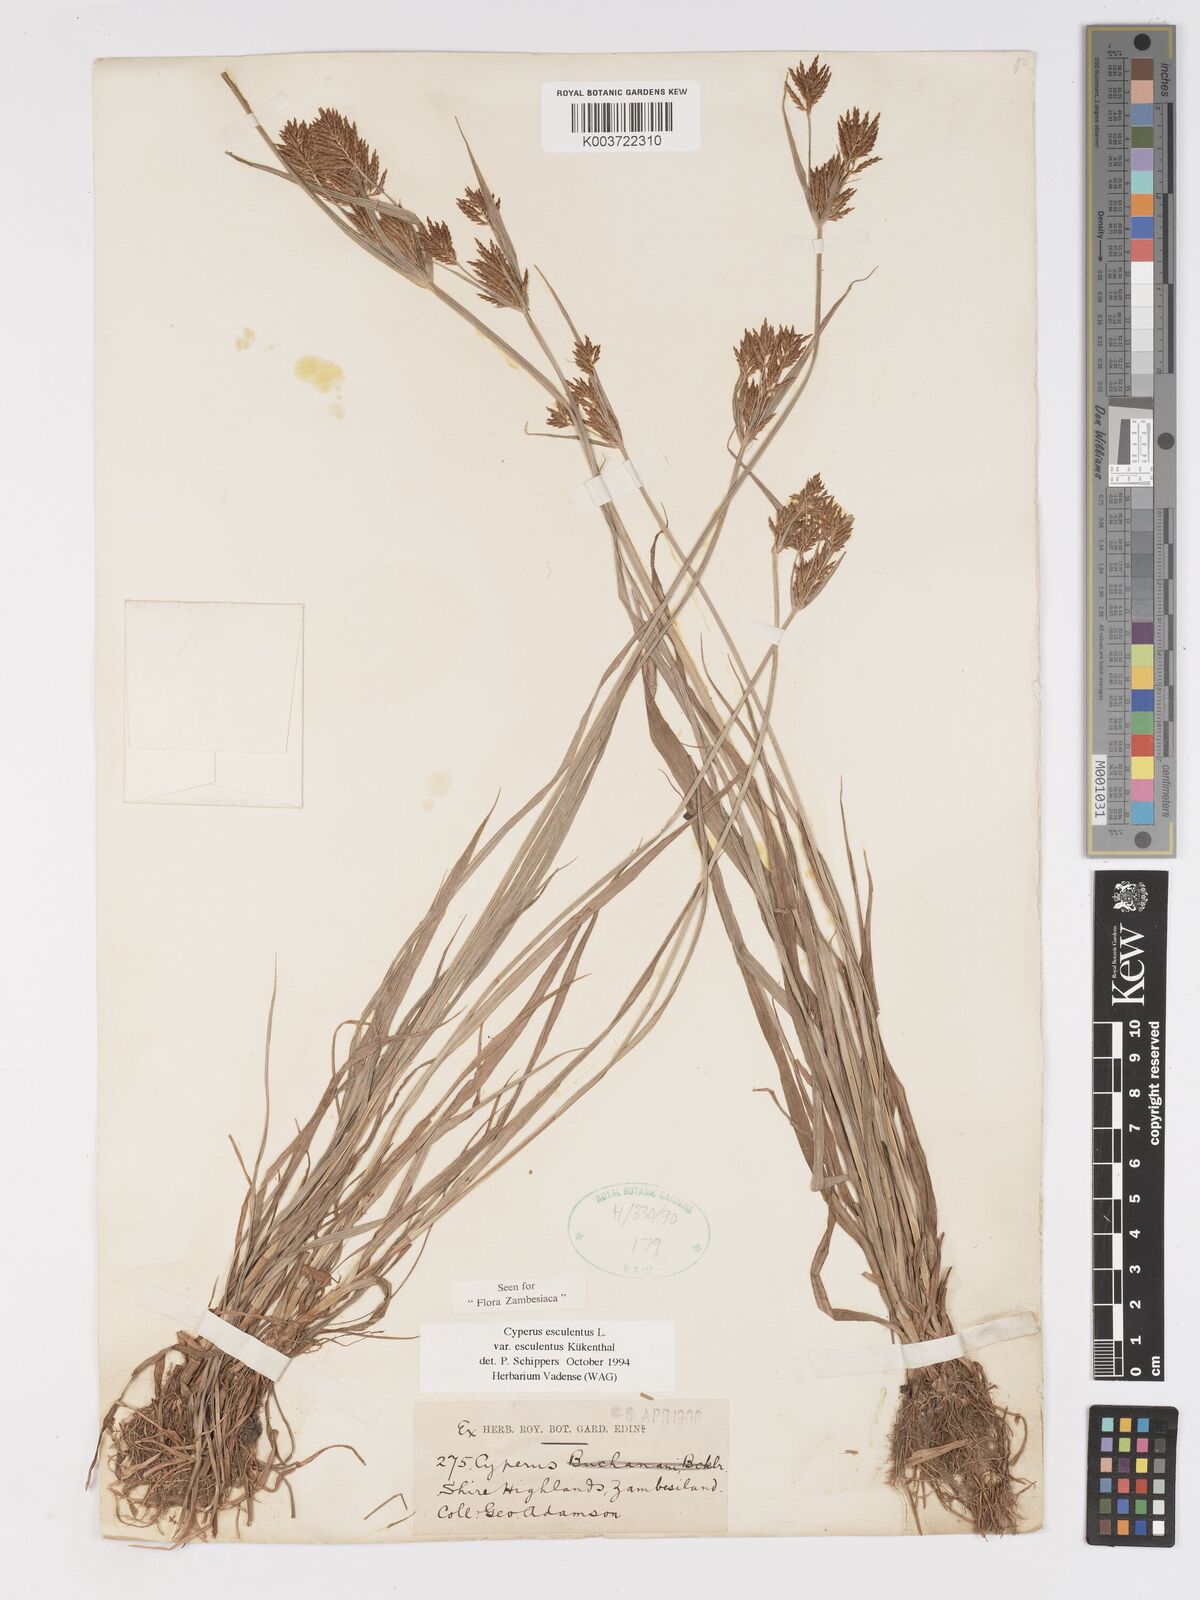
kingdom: Plantae
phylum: Tracheophyta
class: Liliopsida
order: Poales
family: Cyperaceae
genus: Cyperus
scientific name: Cyperus esculentus
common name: Yellow nutsedge
